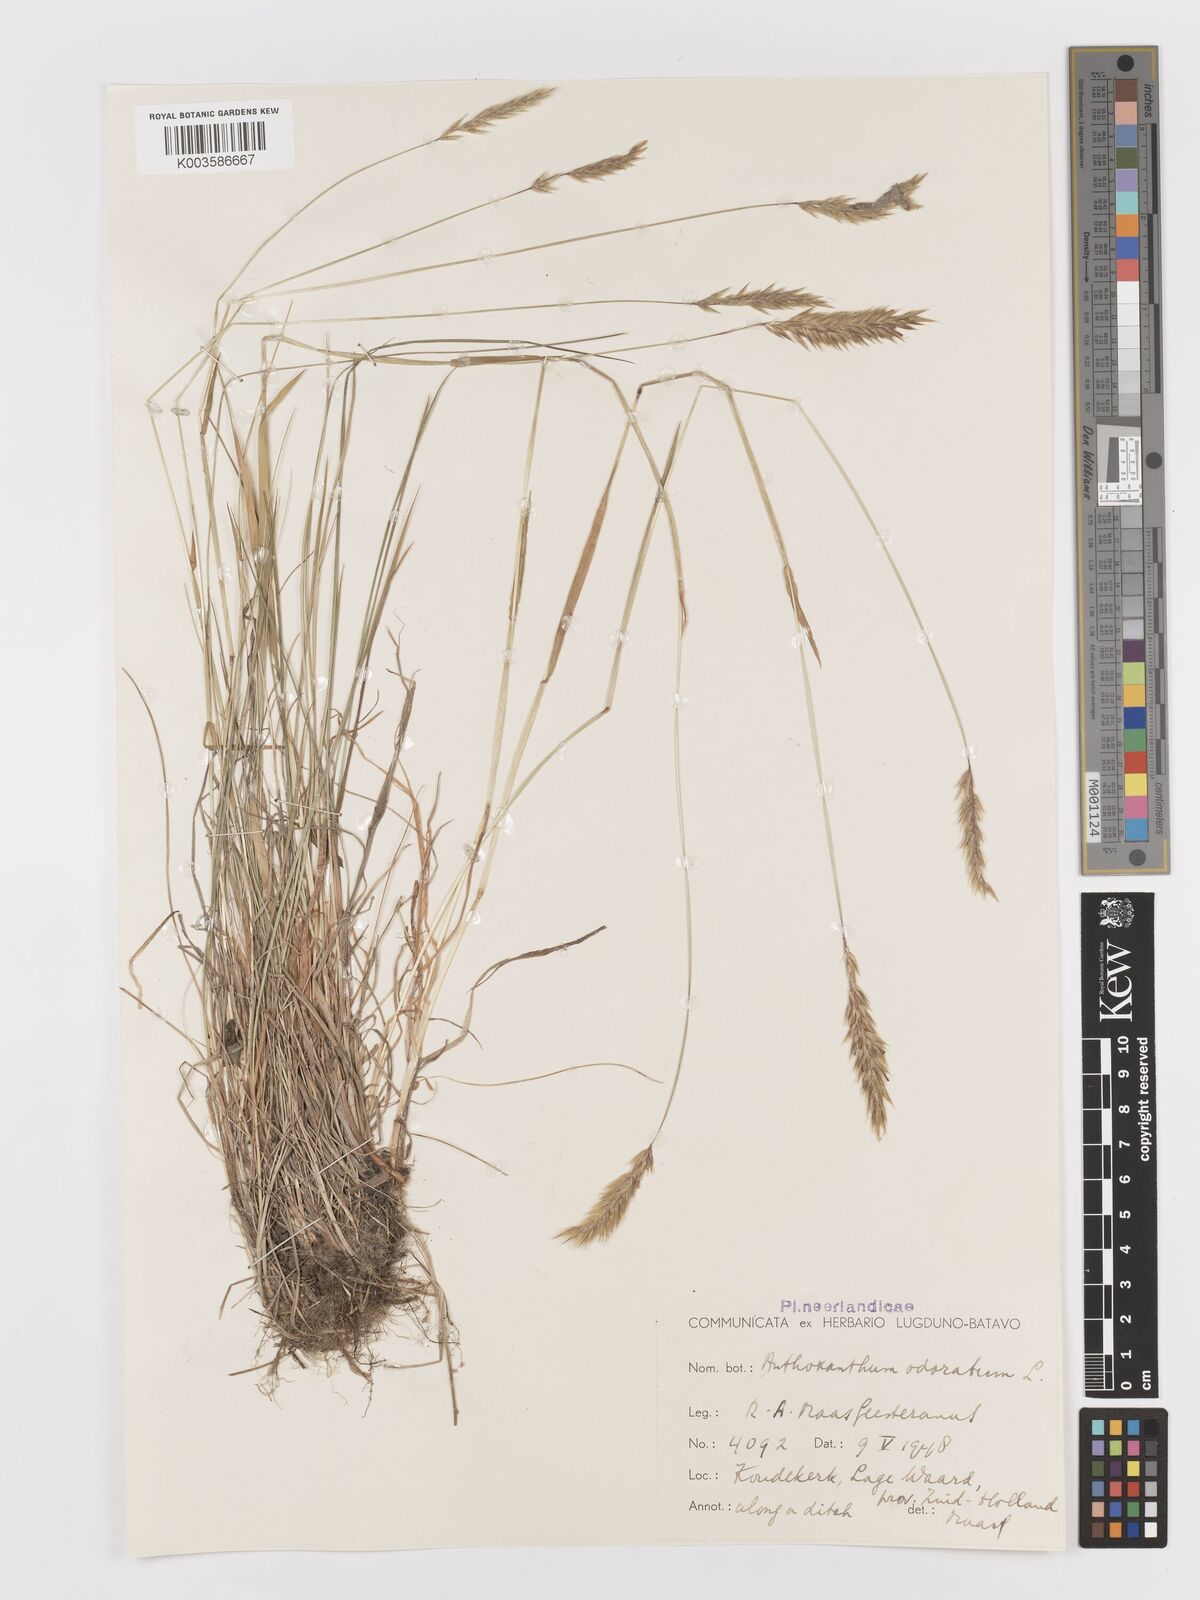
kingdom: Plantae
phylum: Tracheophyta
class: Liliopsida
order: Poales
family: Poaceae
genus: Anthoxanthum
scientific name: Anthoxanthum odoratum
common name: Sweet vernalgrass
